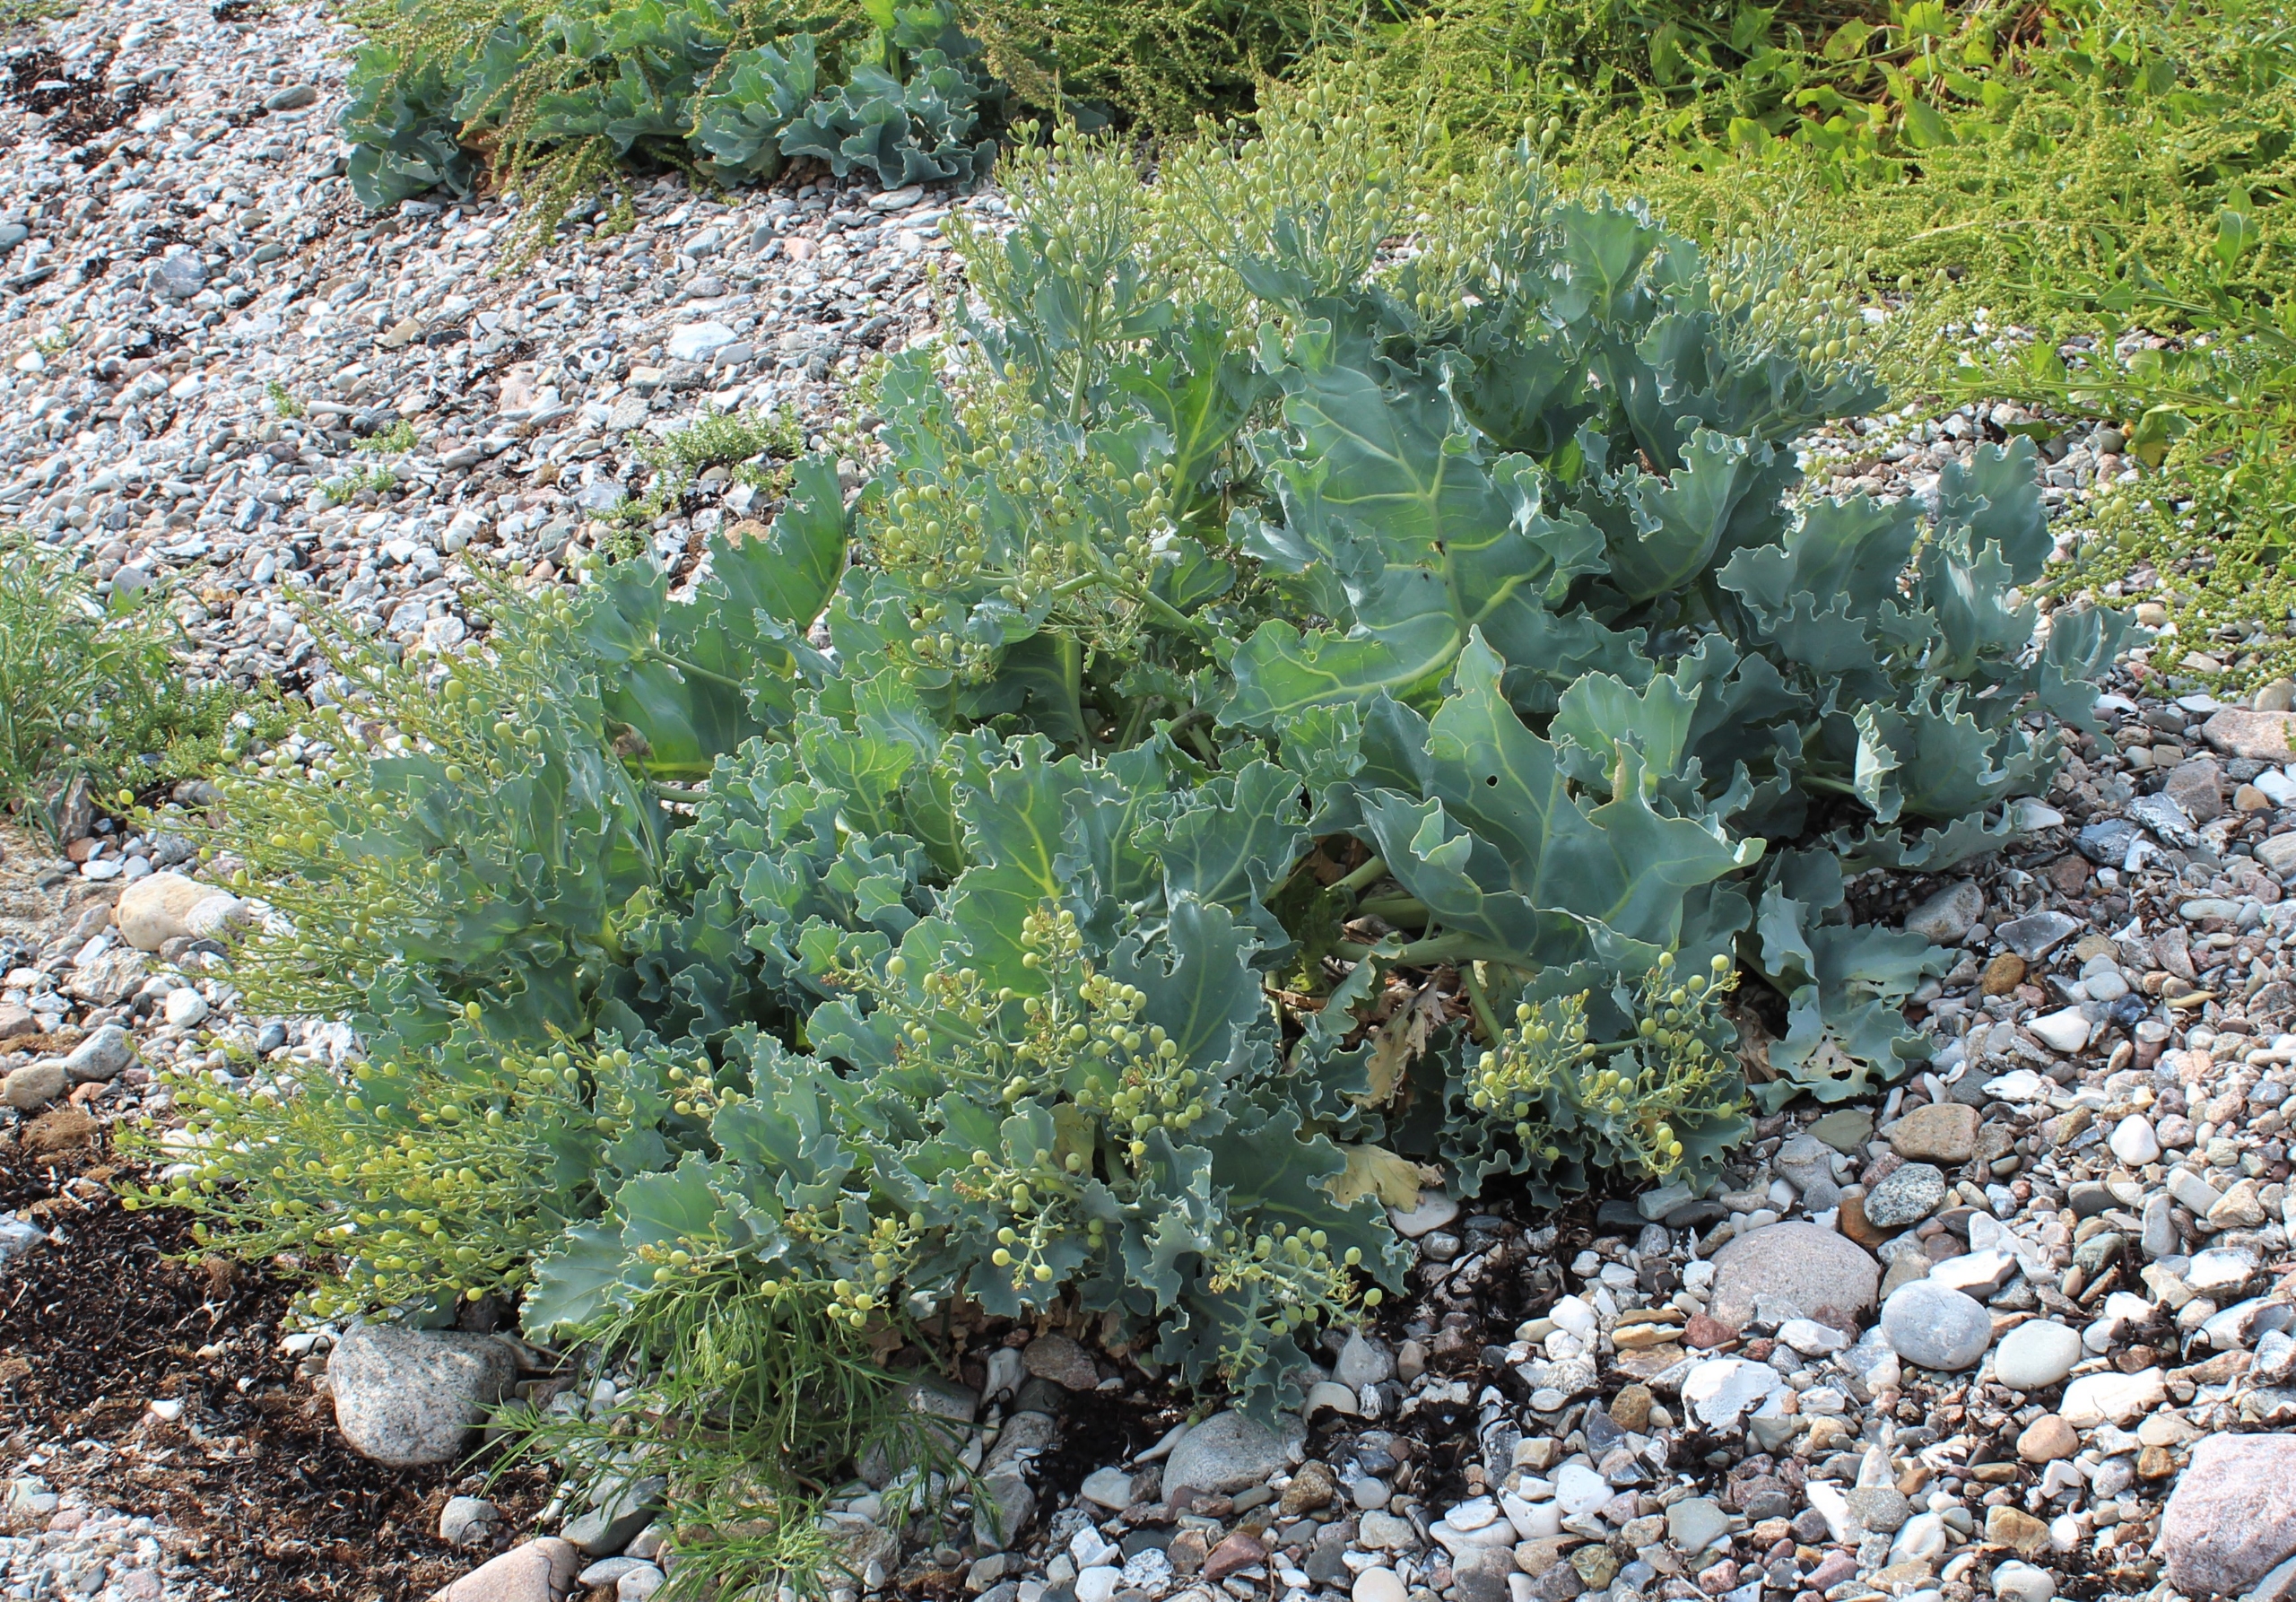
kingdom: Plantae
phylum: Tracheophyta
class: Magnoliopsida
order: Brassicales
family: Brassicaceae
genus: Crambe
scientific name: Crambe maritima
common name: Strandkål
